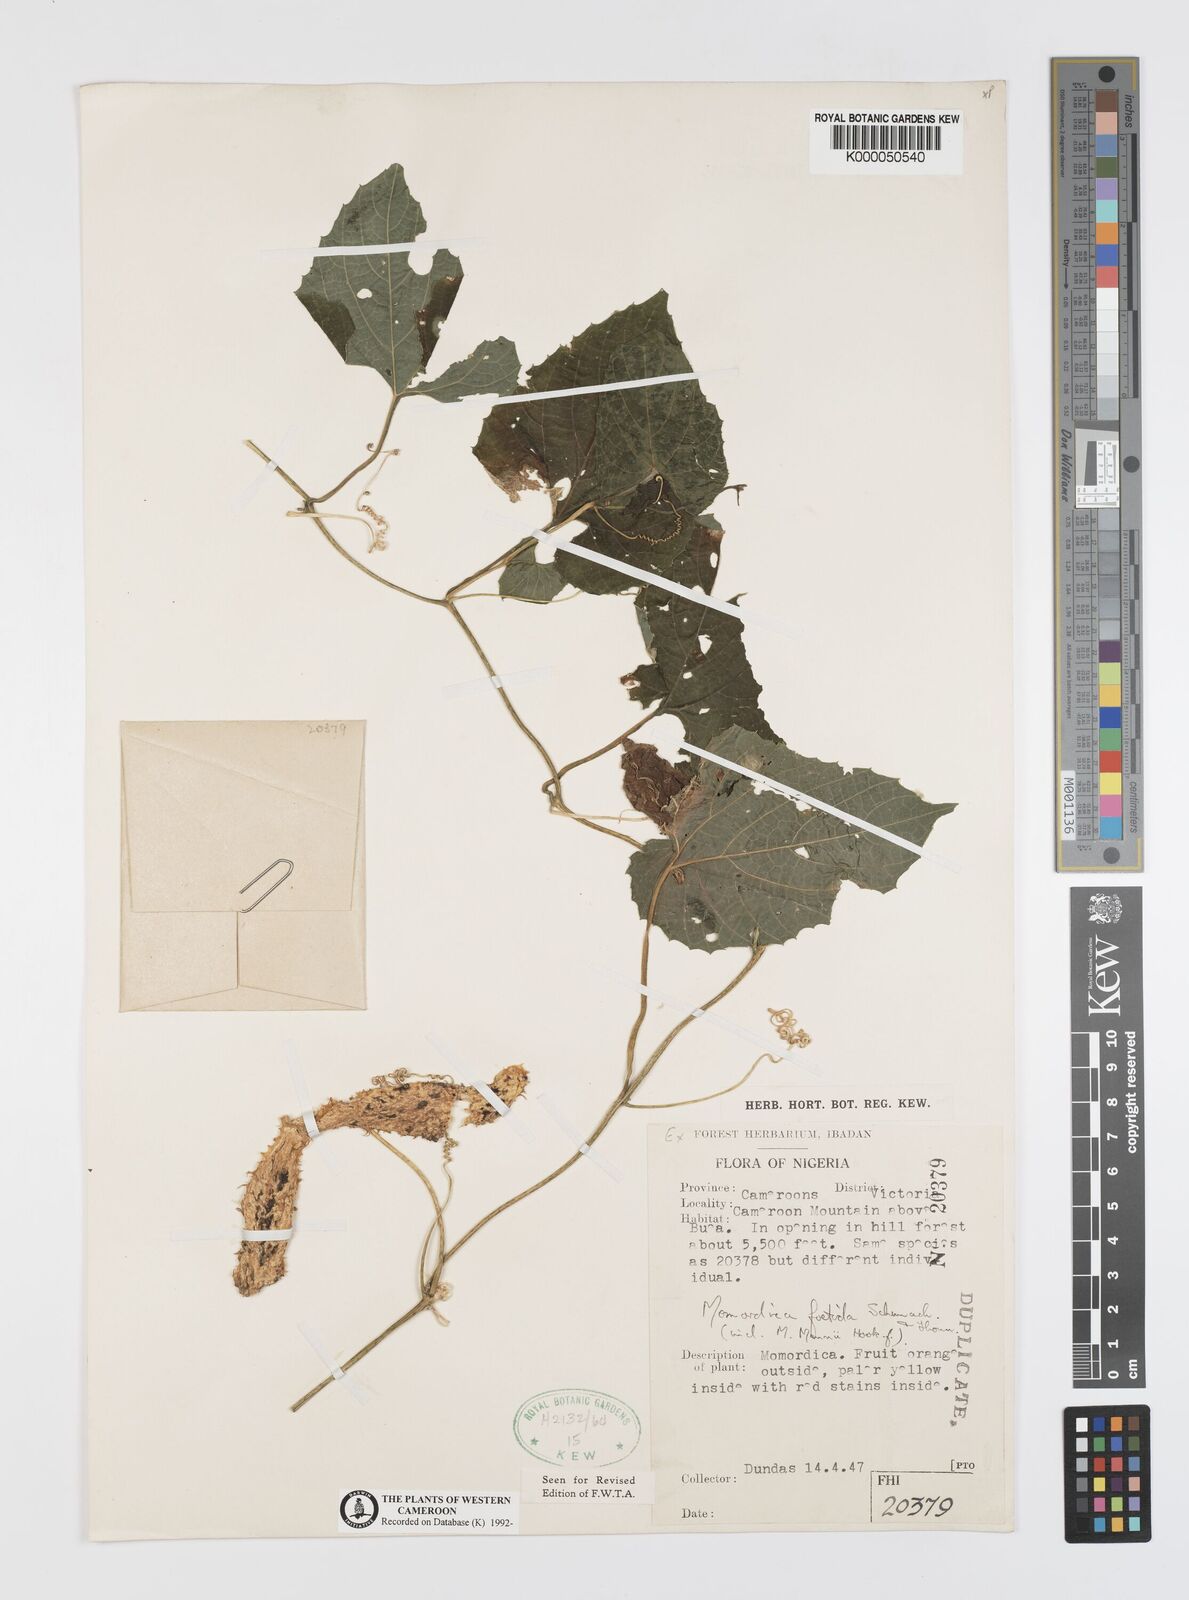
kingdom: Plantae
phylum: Tracheophyta
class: Magnoliopsida
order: Cucurbitales
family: Cucurbitaceae
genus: Momordica
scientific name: Momordica foetida
